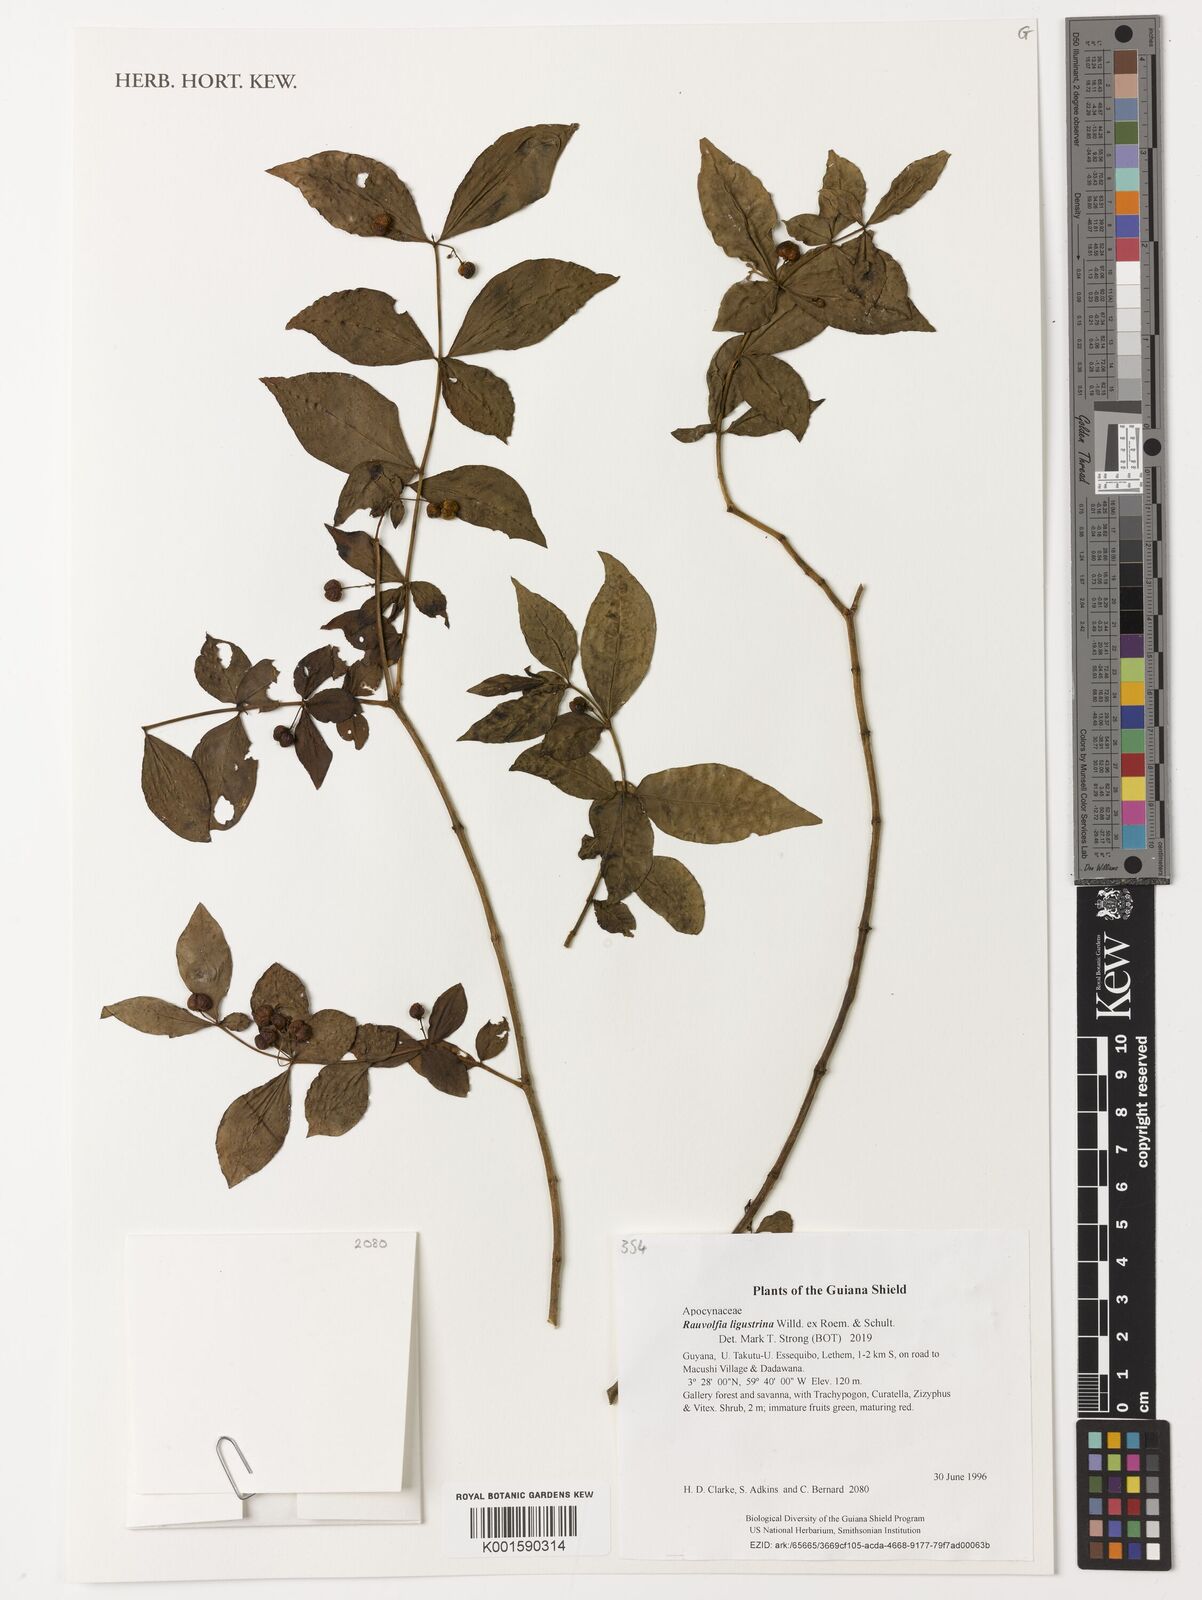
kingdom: Plantae
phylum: Tracheophyta
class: Magnoliopsida
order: Gentianales
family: Apocynaceae
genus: Rauvolfia
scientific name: Rauvolfia ligustrina
